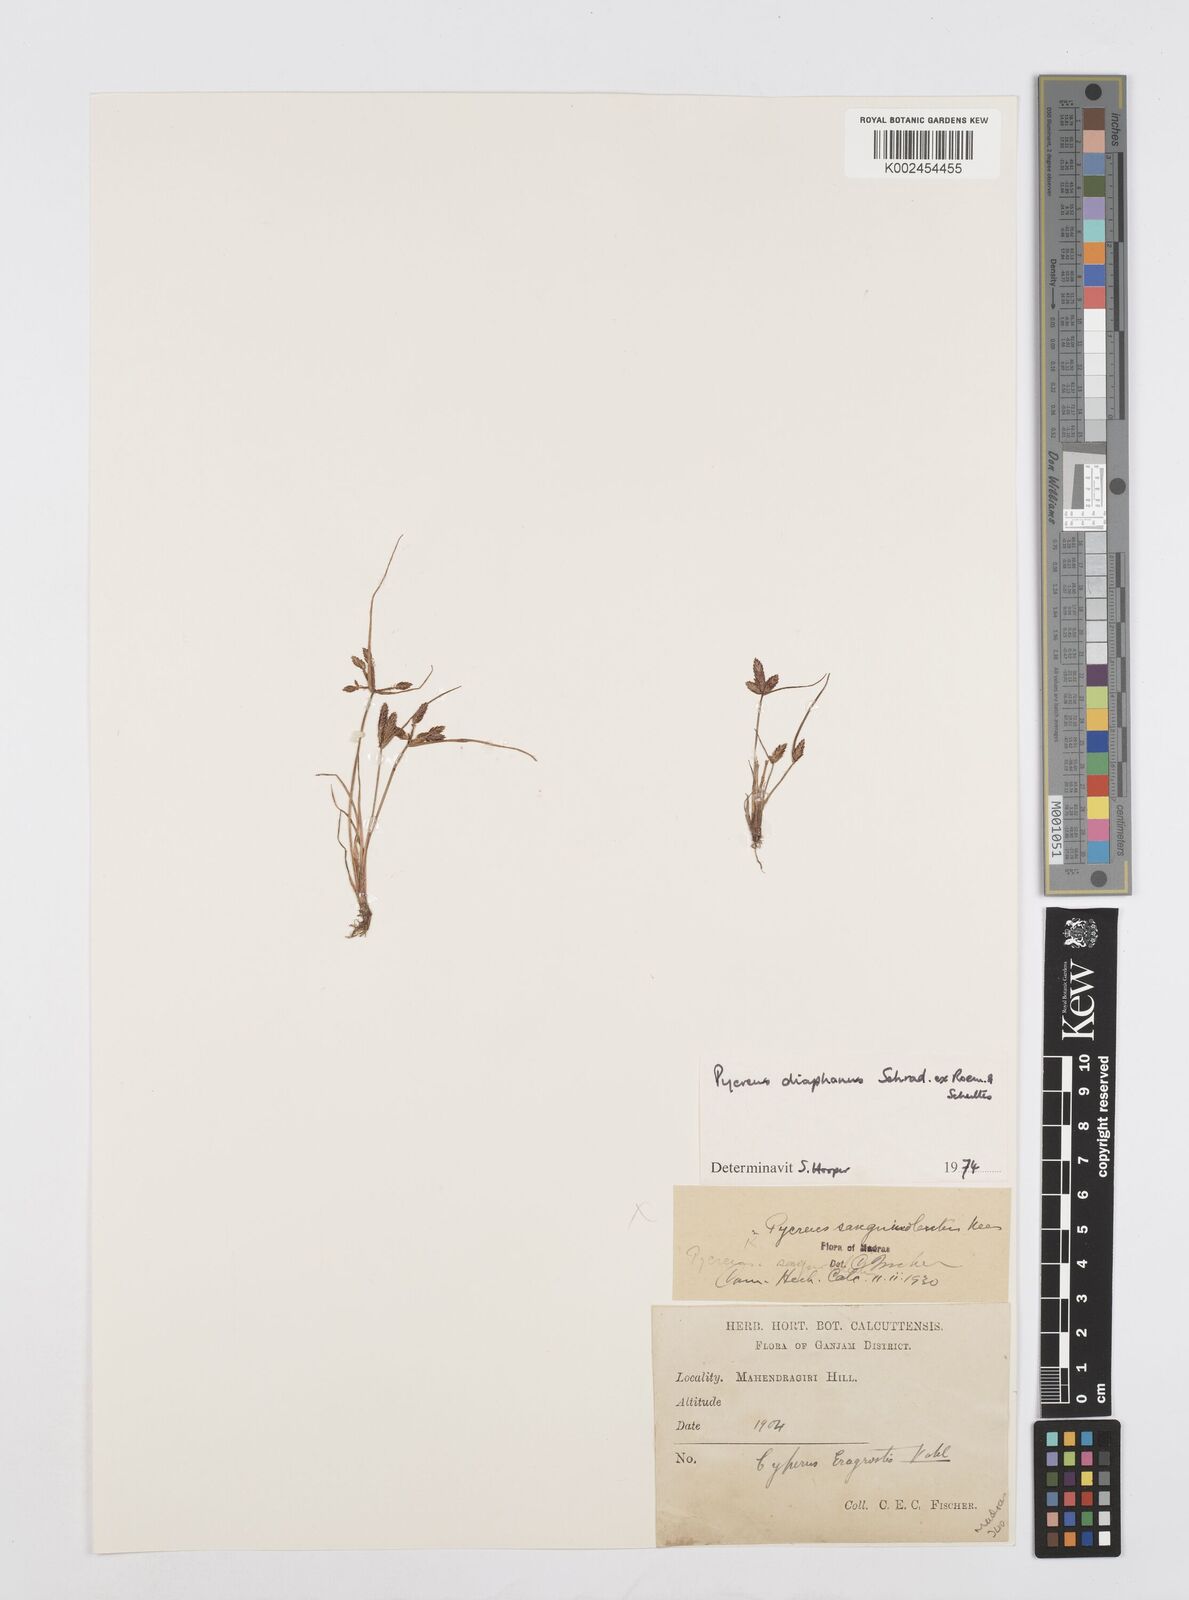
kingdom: Plantae
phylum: Tracheophyta
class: Liliopsida
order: Poales
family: Cyperaceae
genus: Cyperus
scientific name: Cyperus diaphanus
